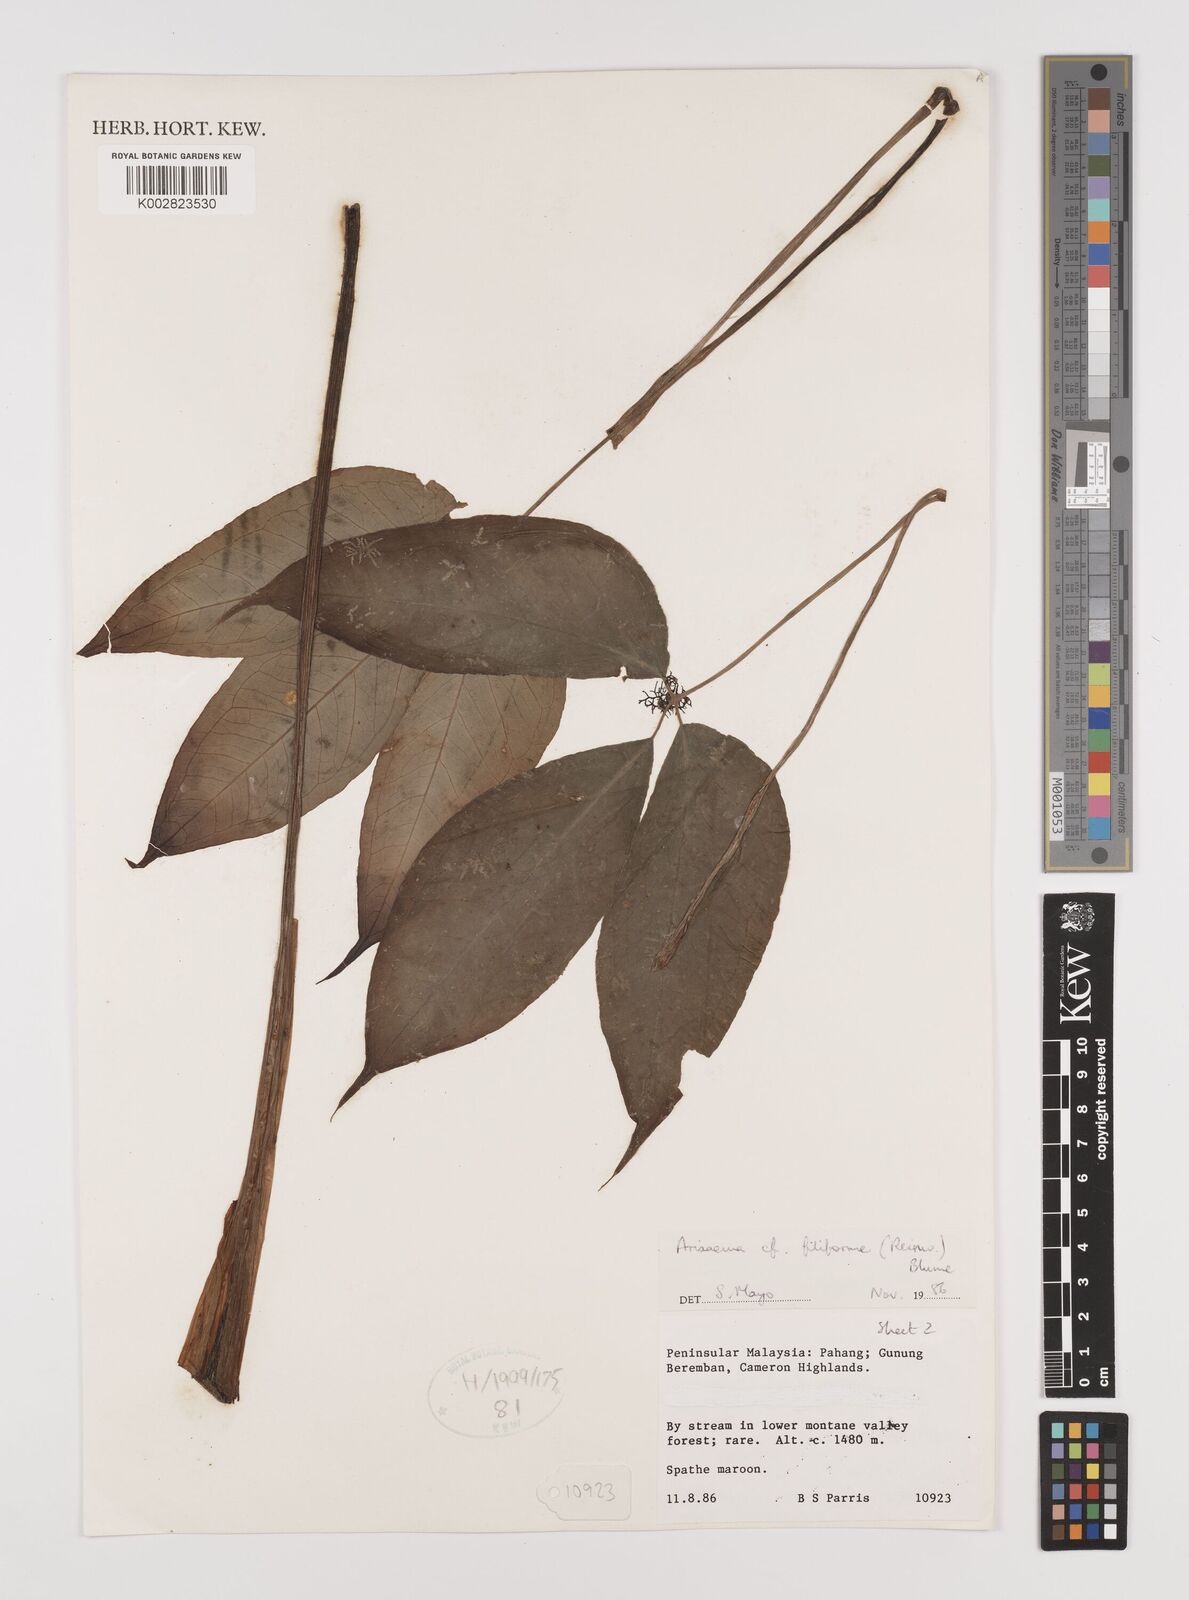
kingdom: Plantae
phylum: Tracheophyta
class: Liliopsida
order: Alismatales
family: Araceae
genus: Arisaema
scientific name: Arisaema filiforme
